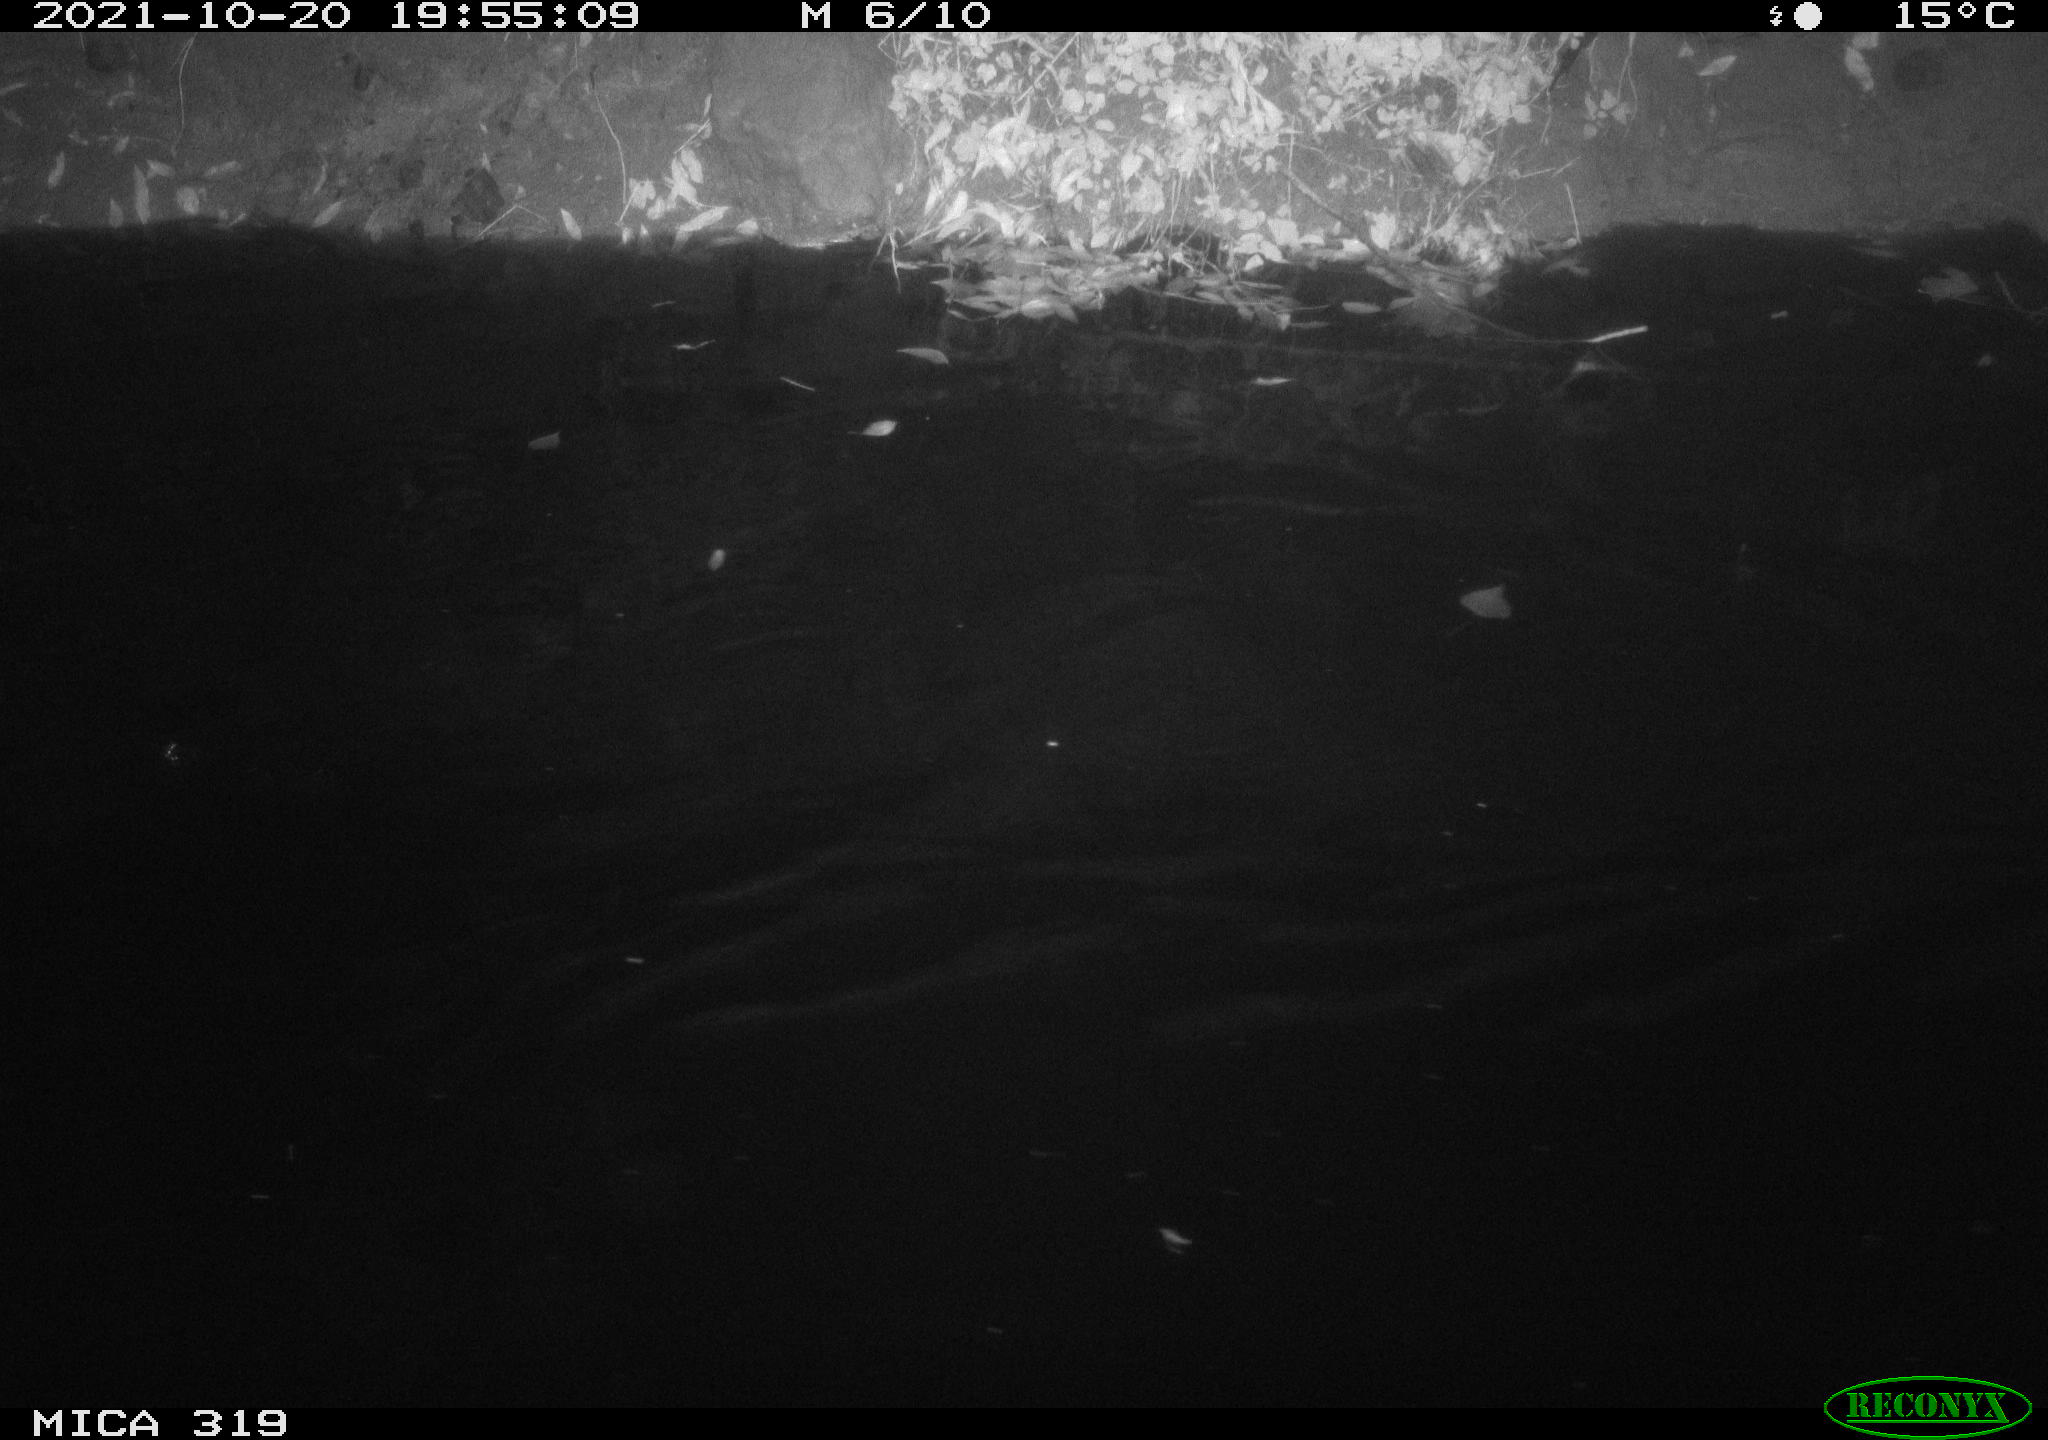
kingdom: Animalia
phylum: Chordata
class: Aves
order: Anseriformes
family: Anatidae
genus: Anas
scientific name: Anas platyrhynchos
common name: Mallard
